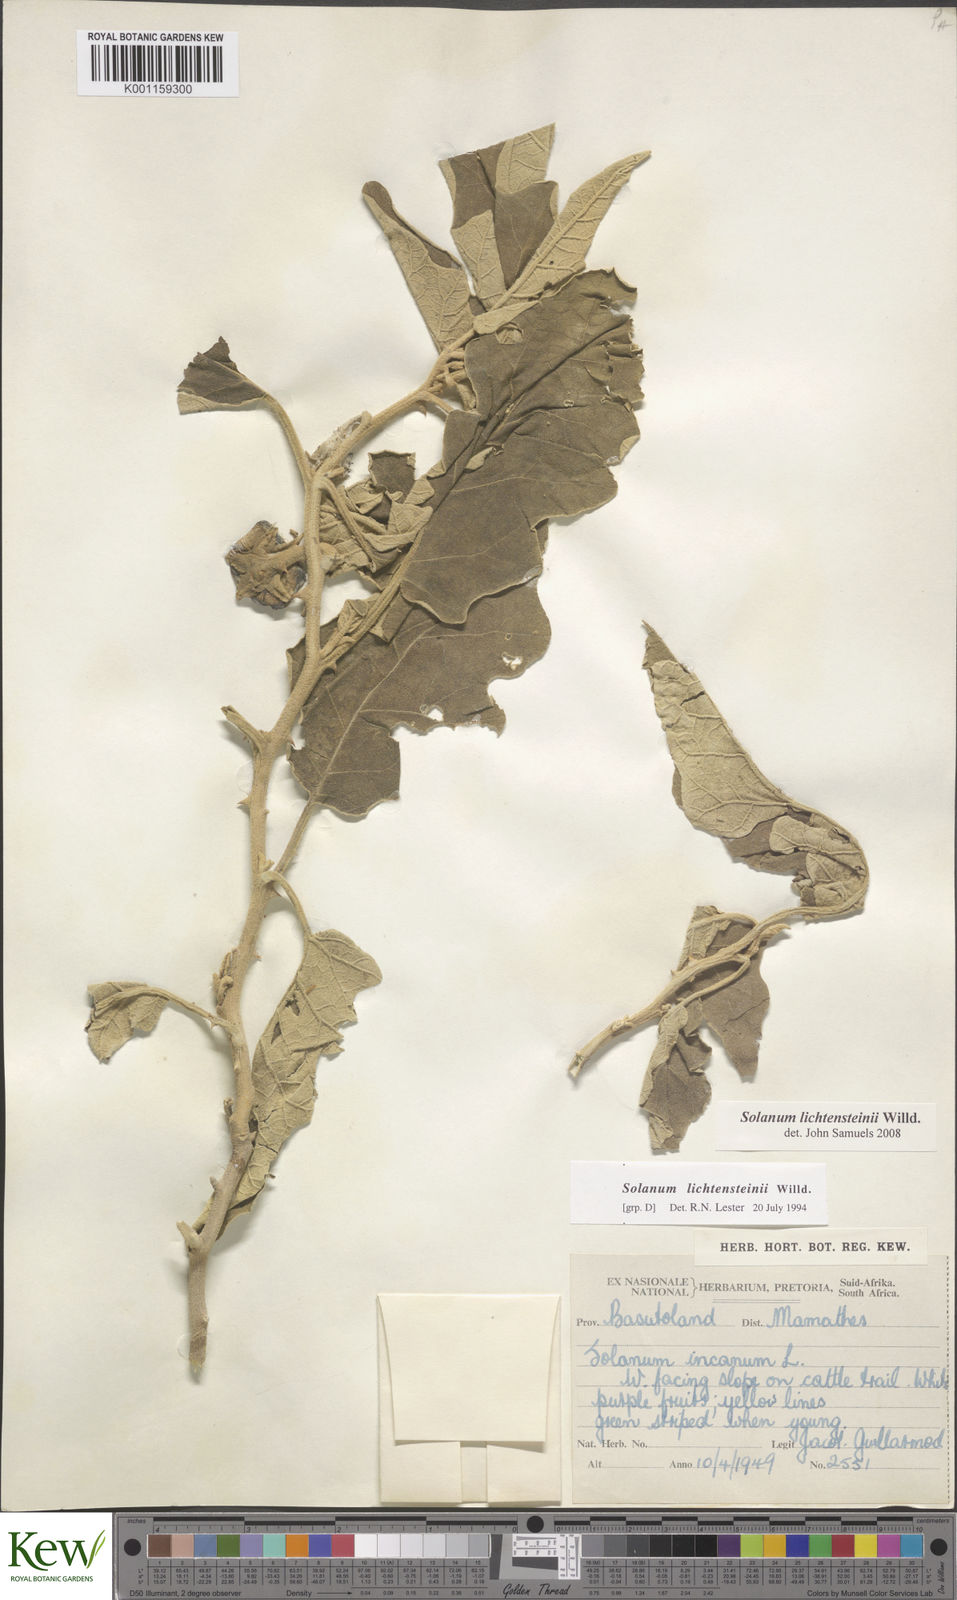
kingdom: Plantae
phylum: Tracheophyta
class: Magnoliopsida
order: Solanales
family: Solanaceae
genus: Solanum
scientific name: Solanum lichtensteinii
